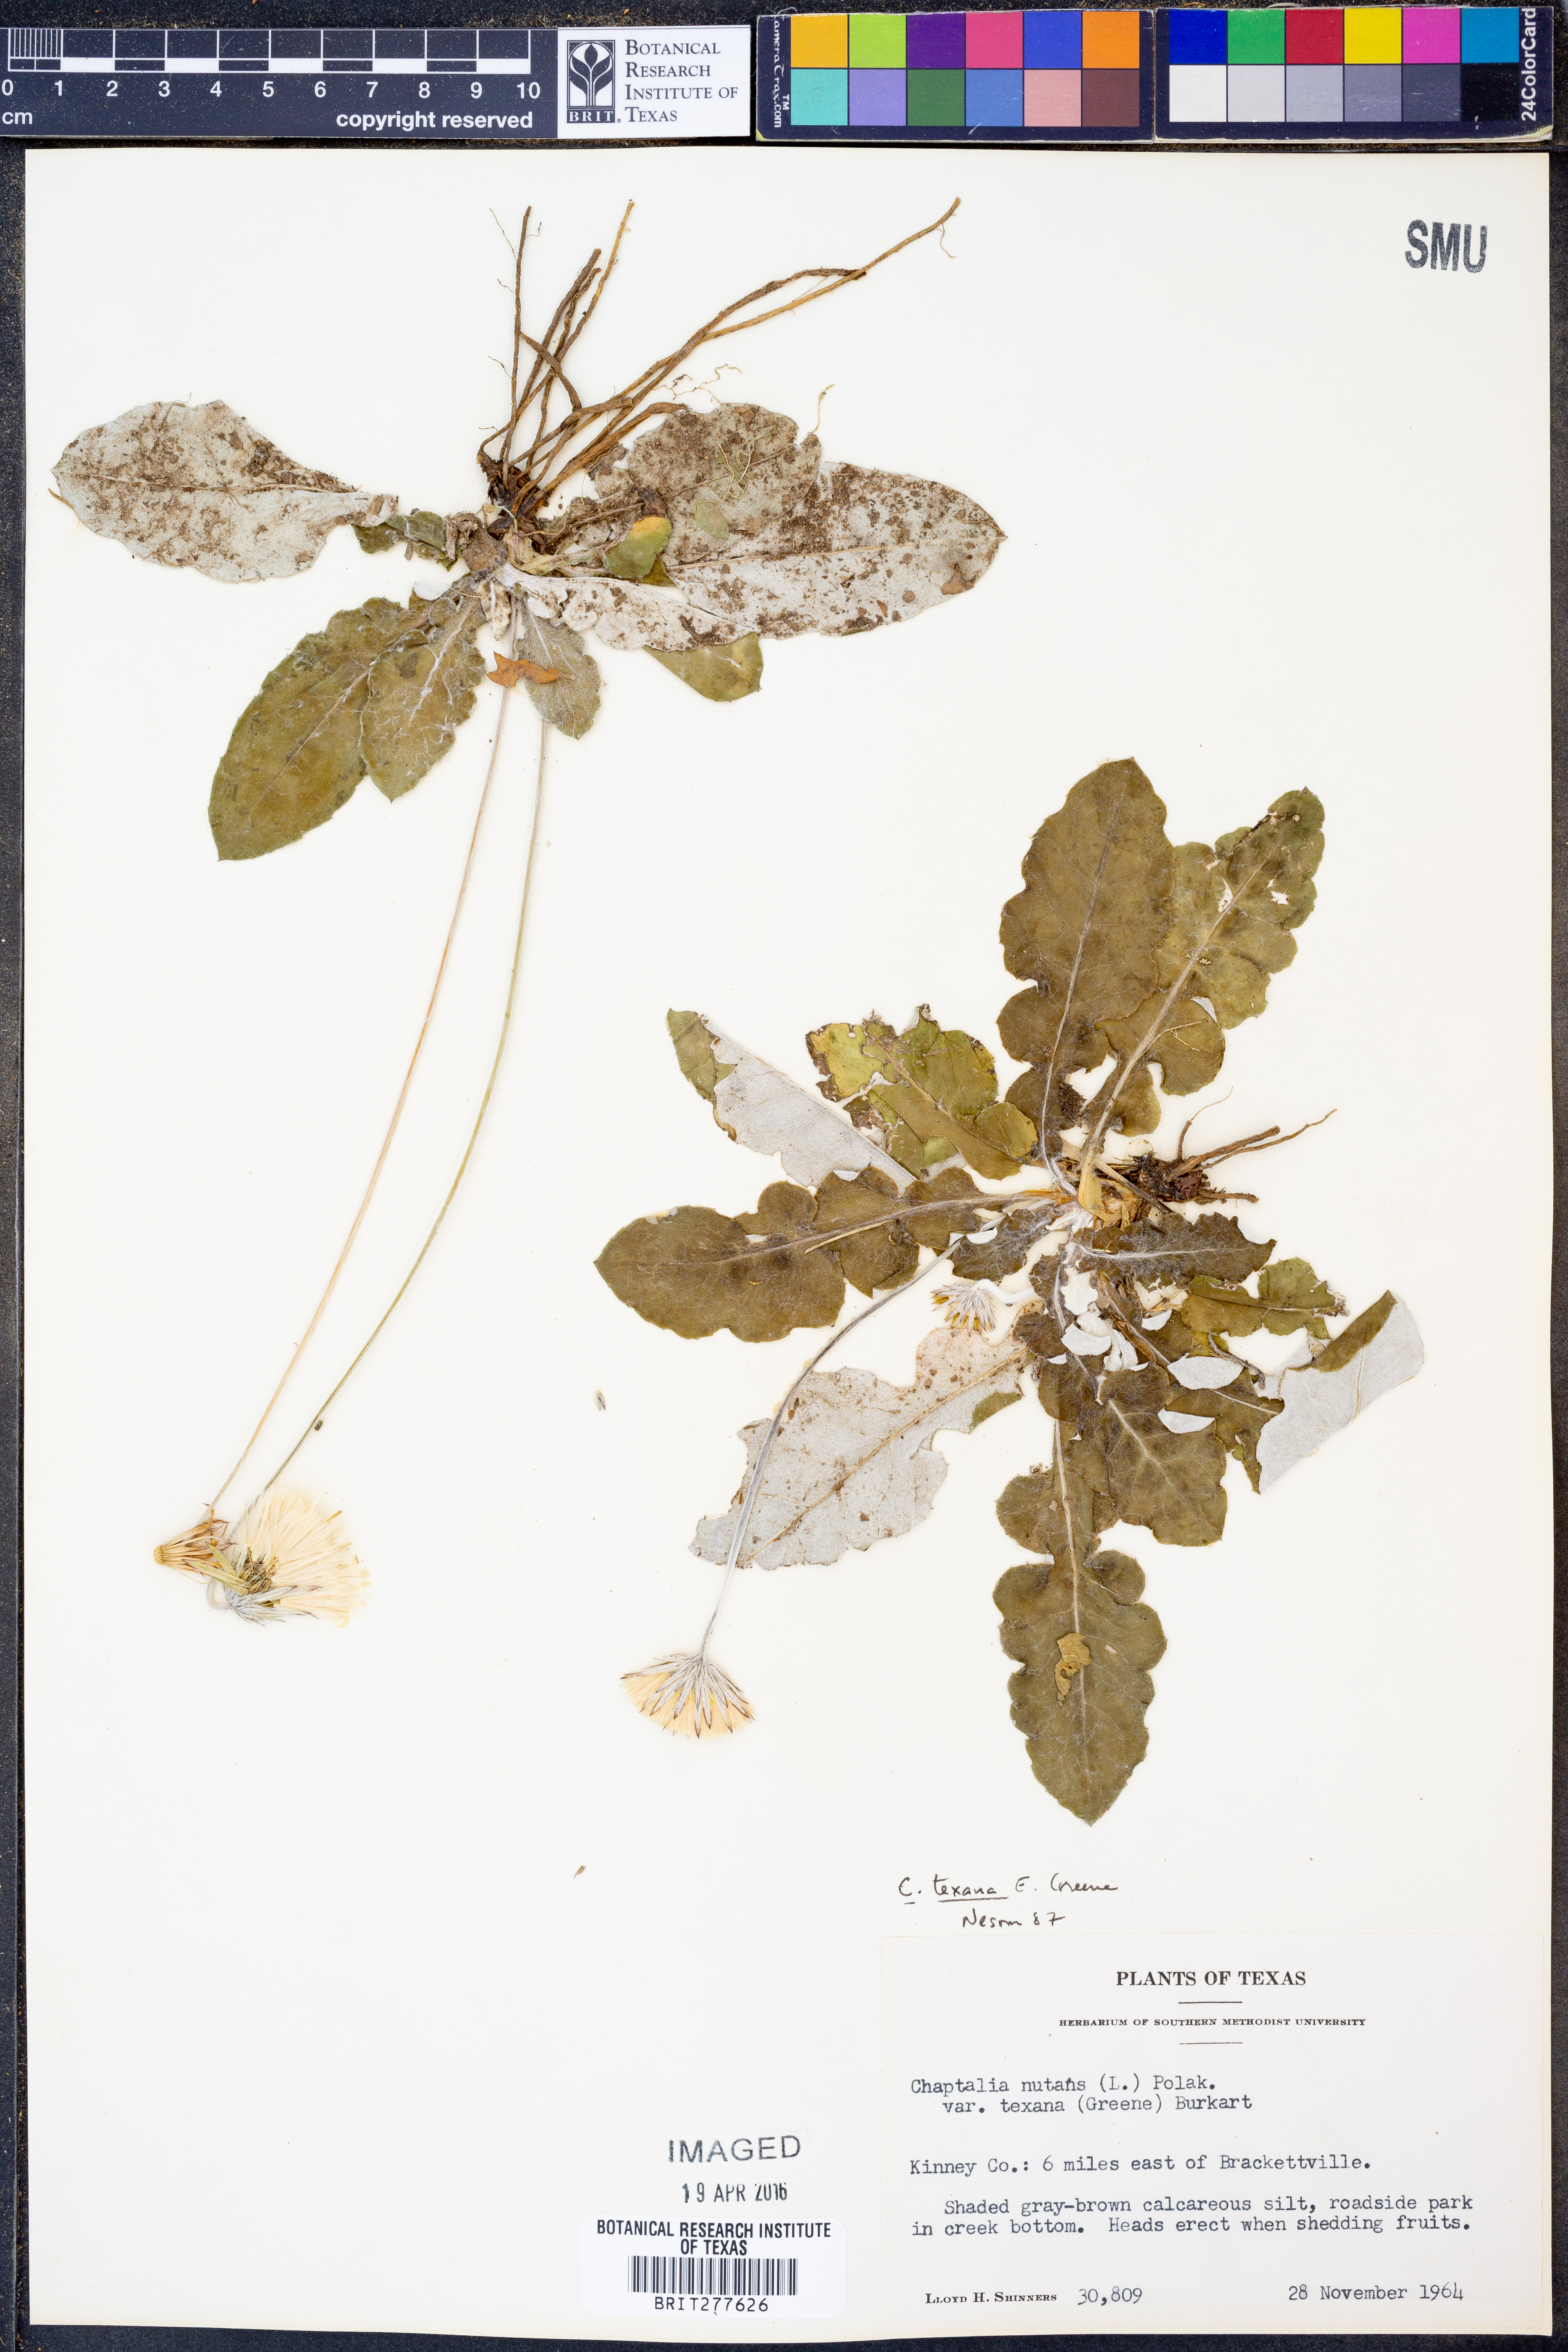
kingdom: Plantae
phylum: Tracheophyta
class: Magnoliopsida
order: Asterales
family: Asteraceae
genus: Chaptalia
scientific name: Chaptalia texana
